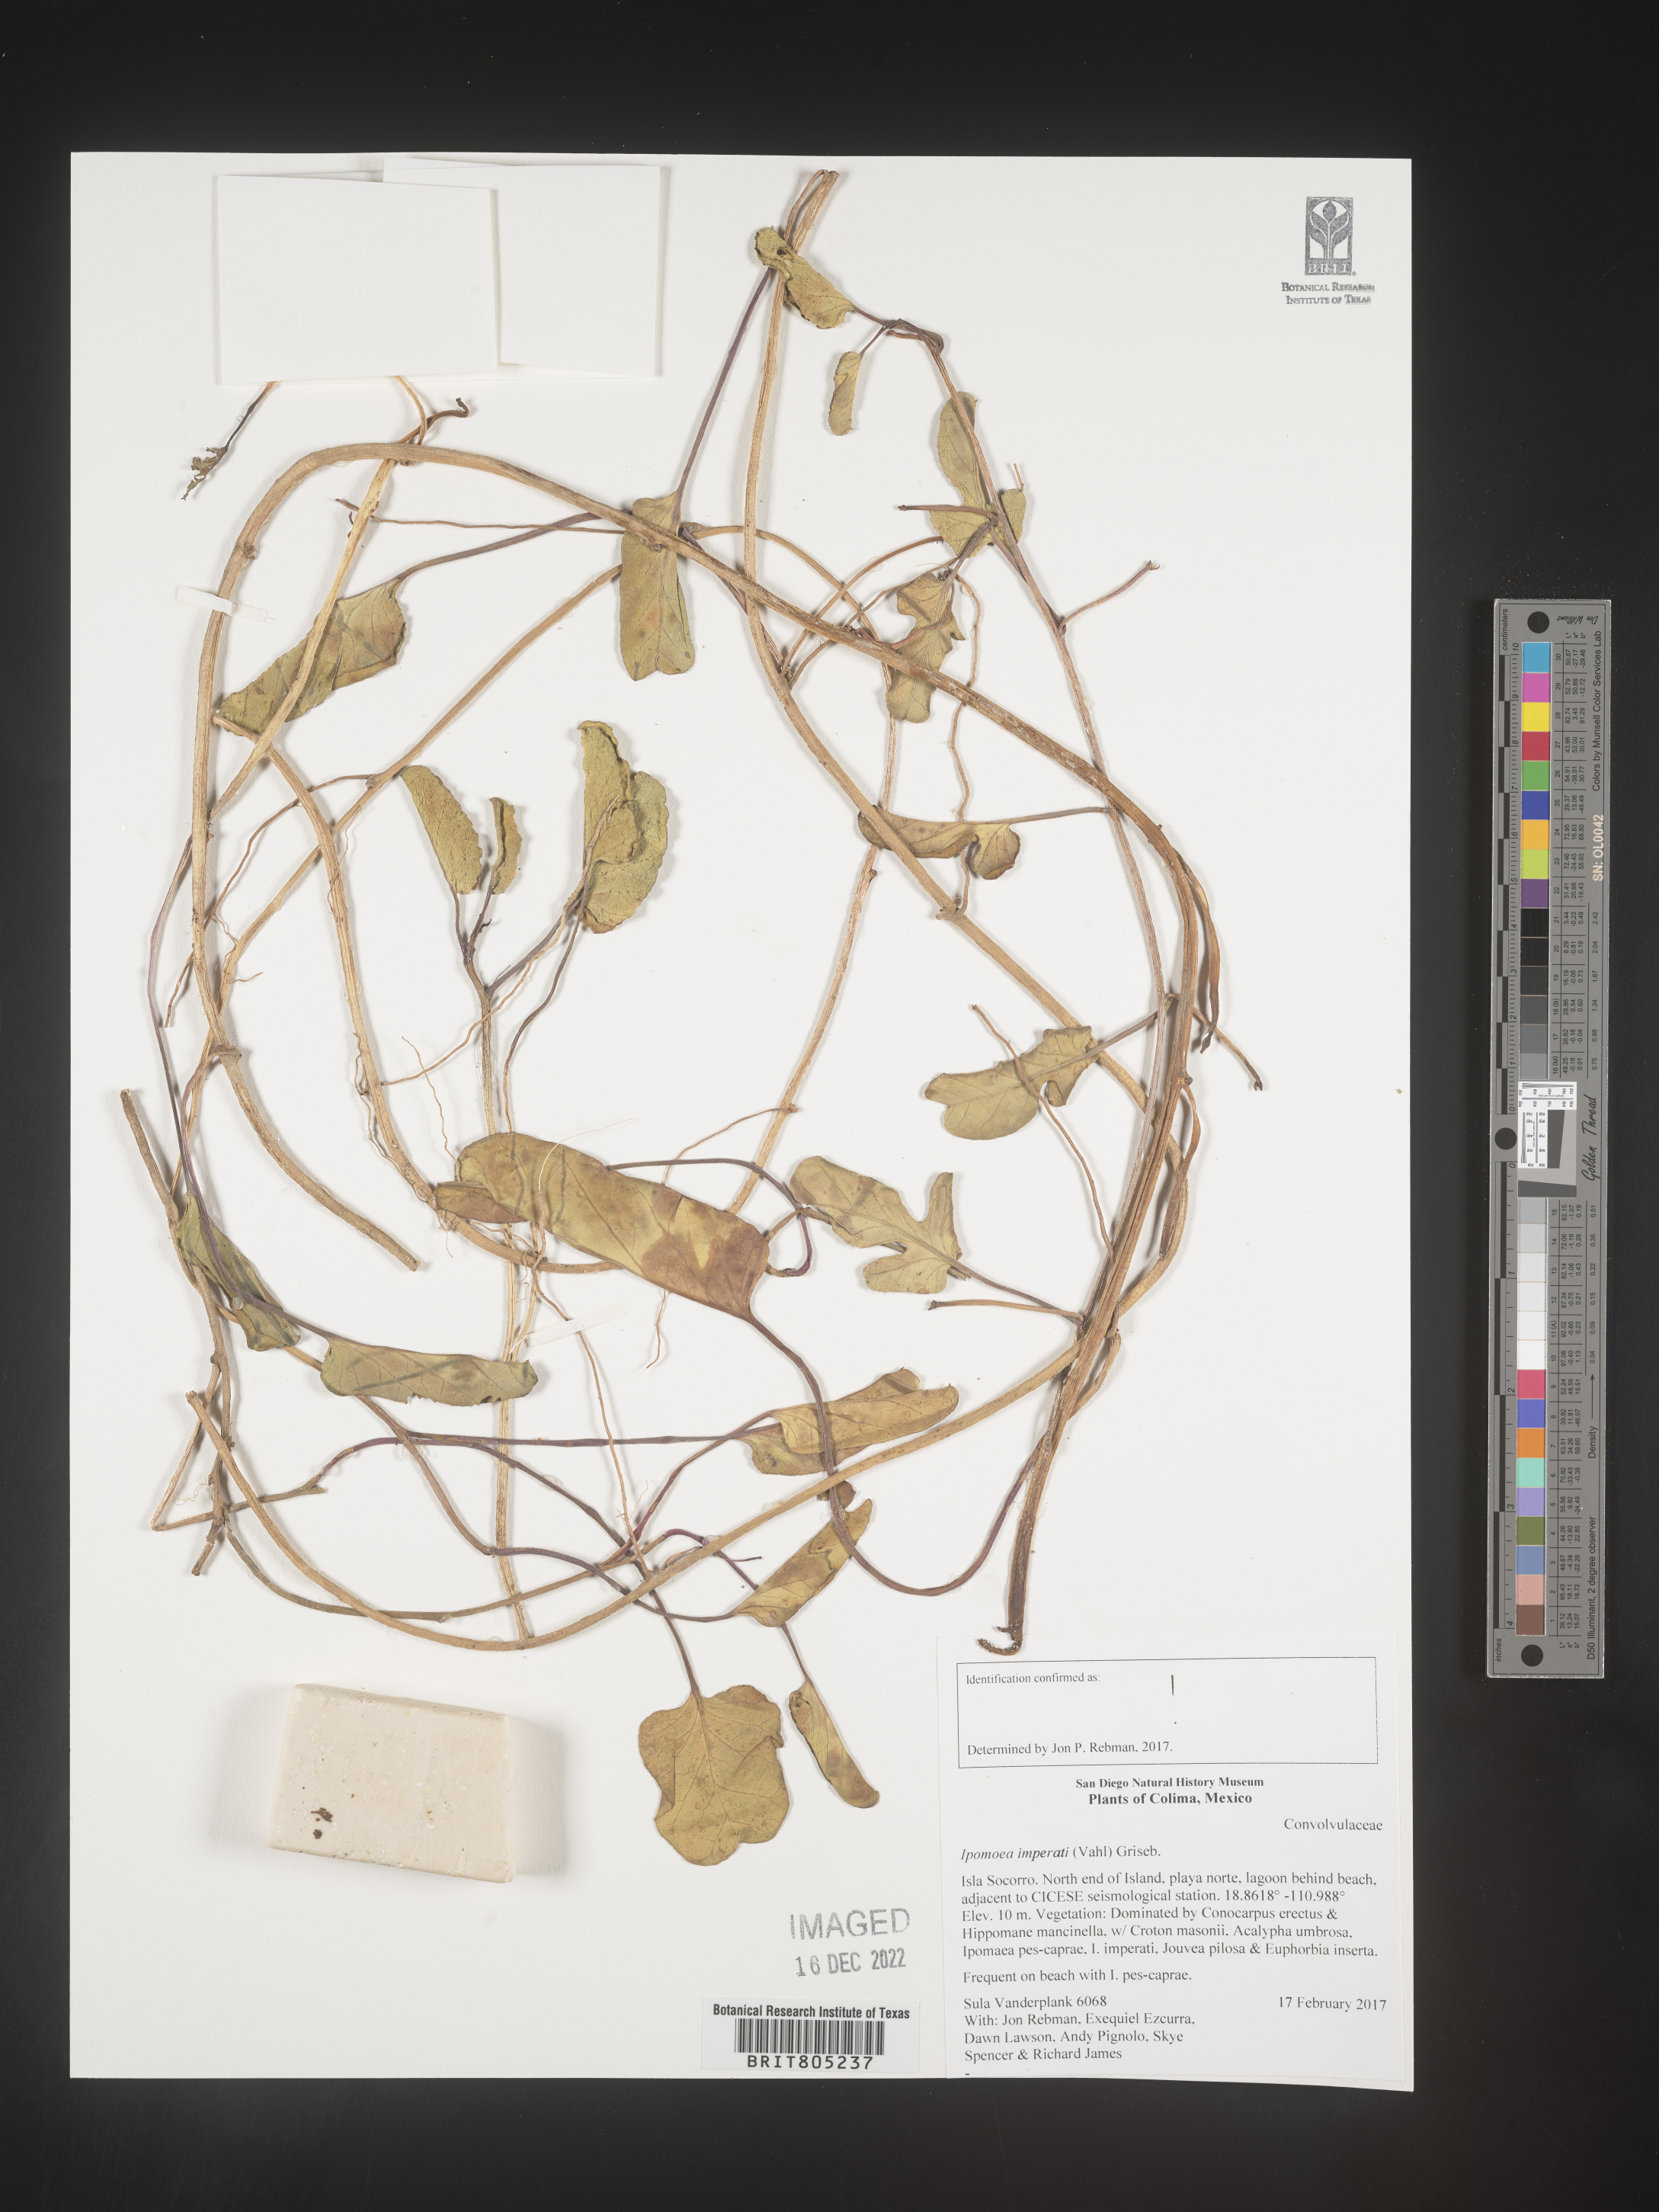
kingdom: Plantae
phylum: Tracheophyta
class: Magnoliopsida
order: Solanales
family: Convolvulaceae
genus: Ipomoea
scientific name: Ipomoea
